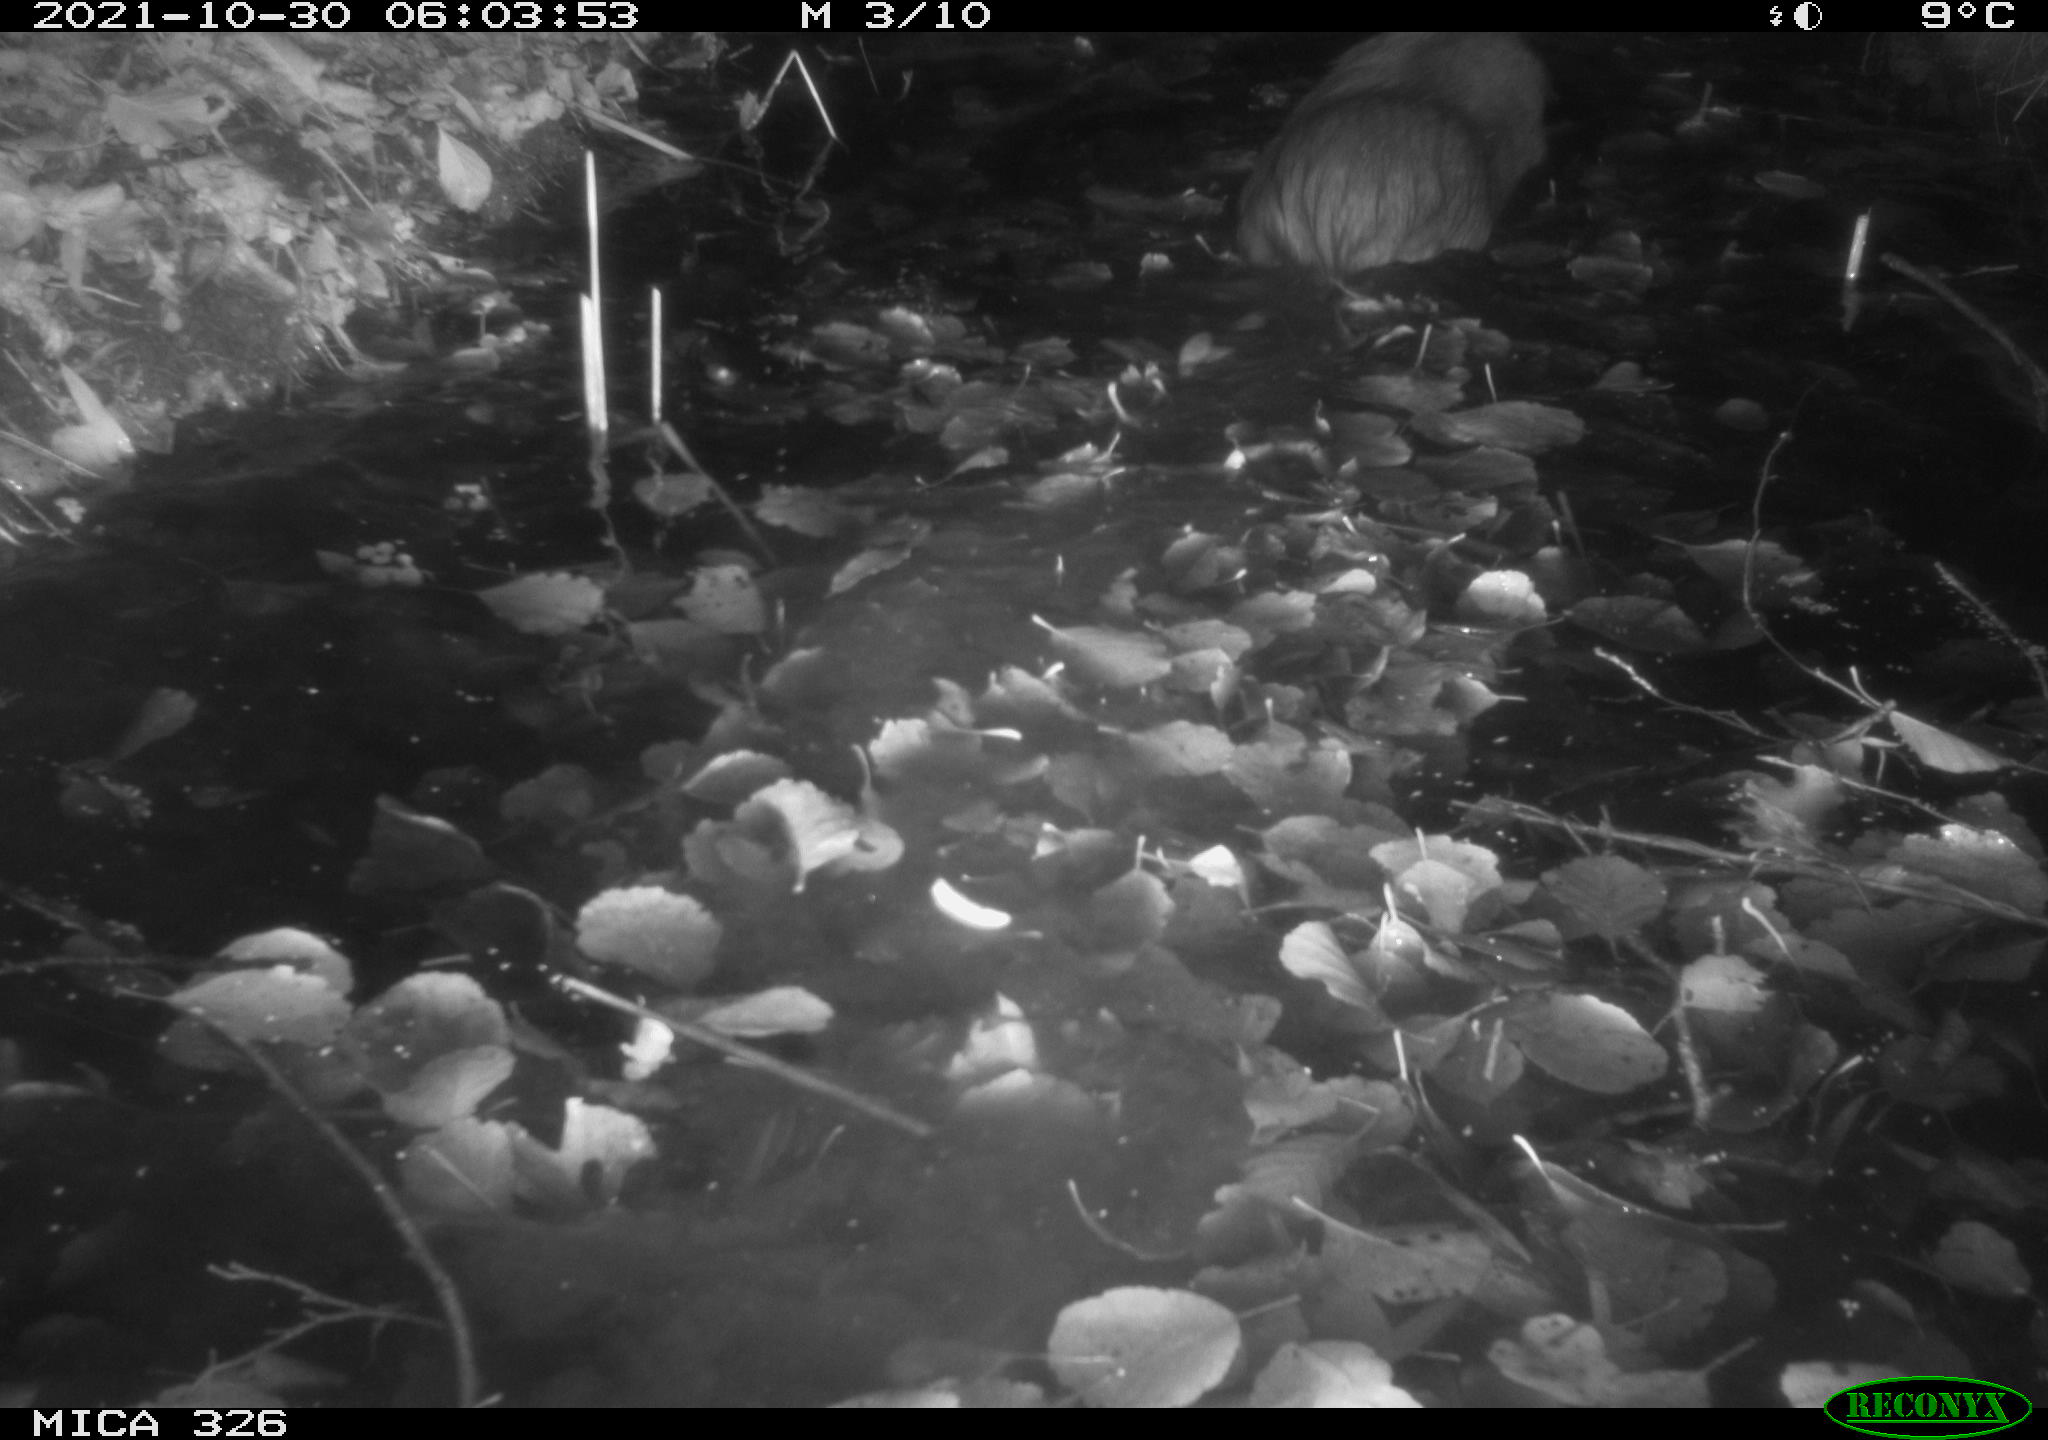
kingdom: Animalia
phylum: Chordata
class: Mammalia
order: Rodentia
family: Myocastoridae
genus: Myocastor
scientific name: Myocastor coypus
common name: Coypu
